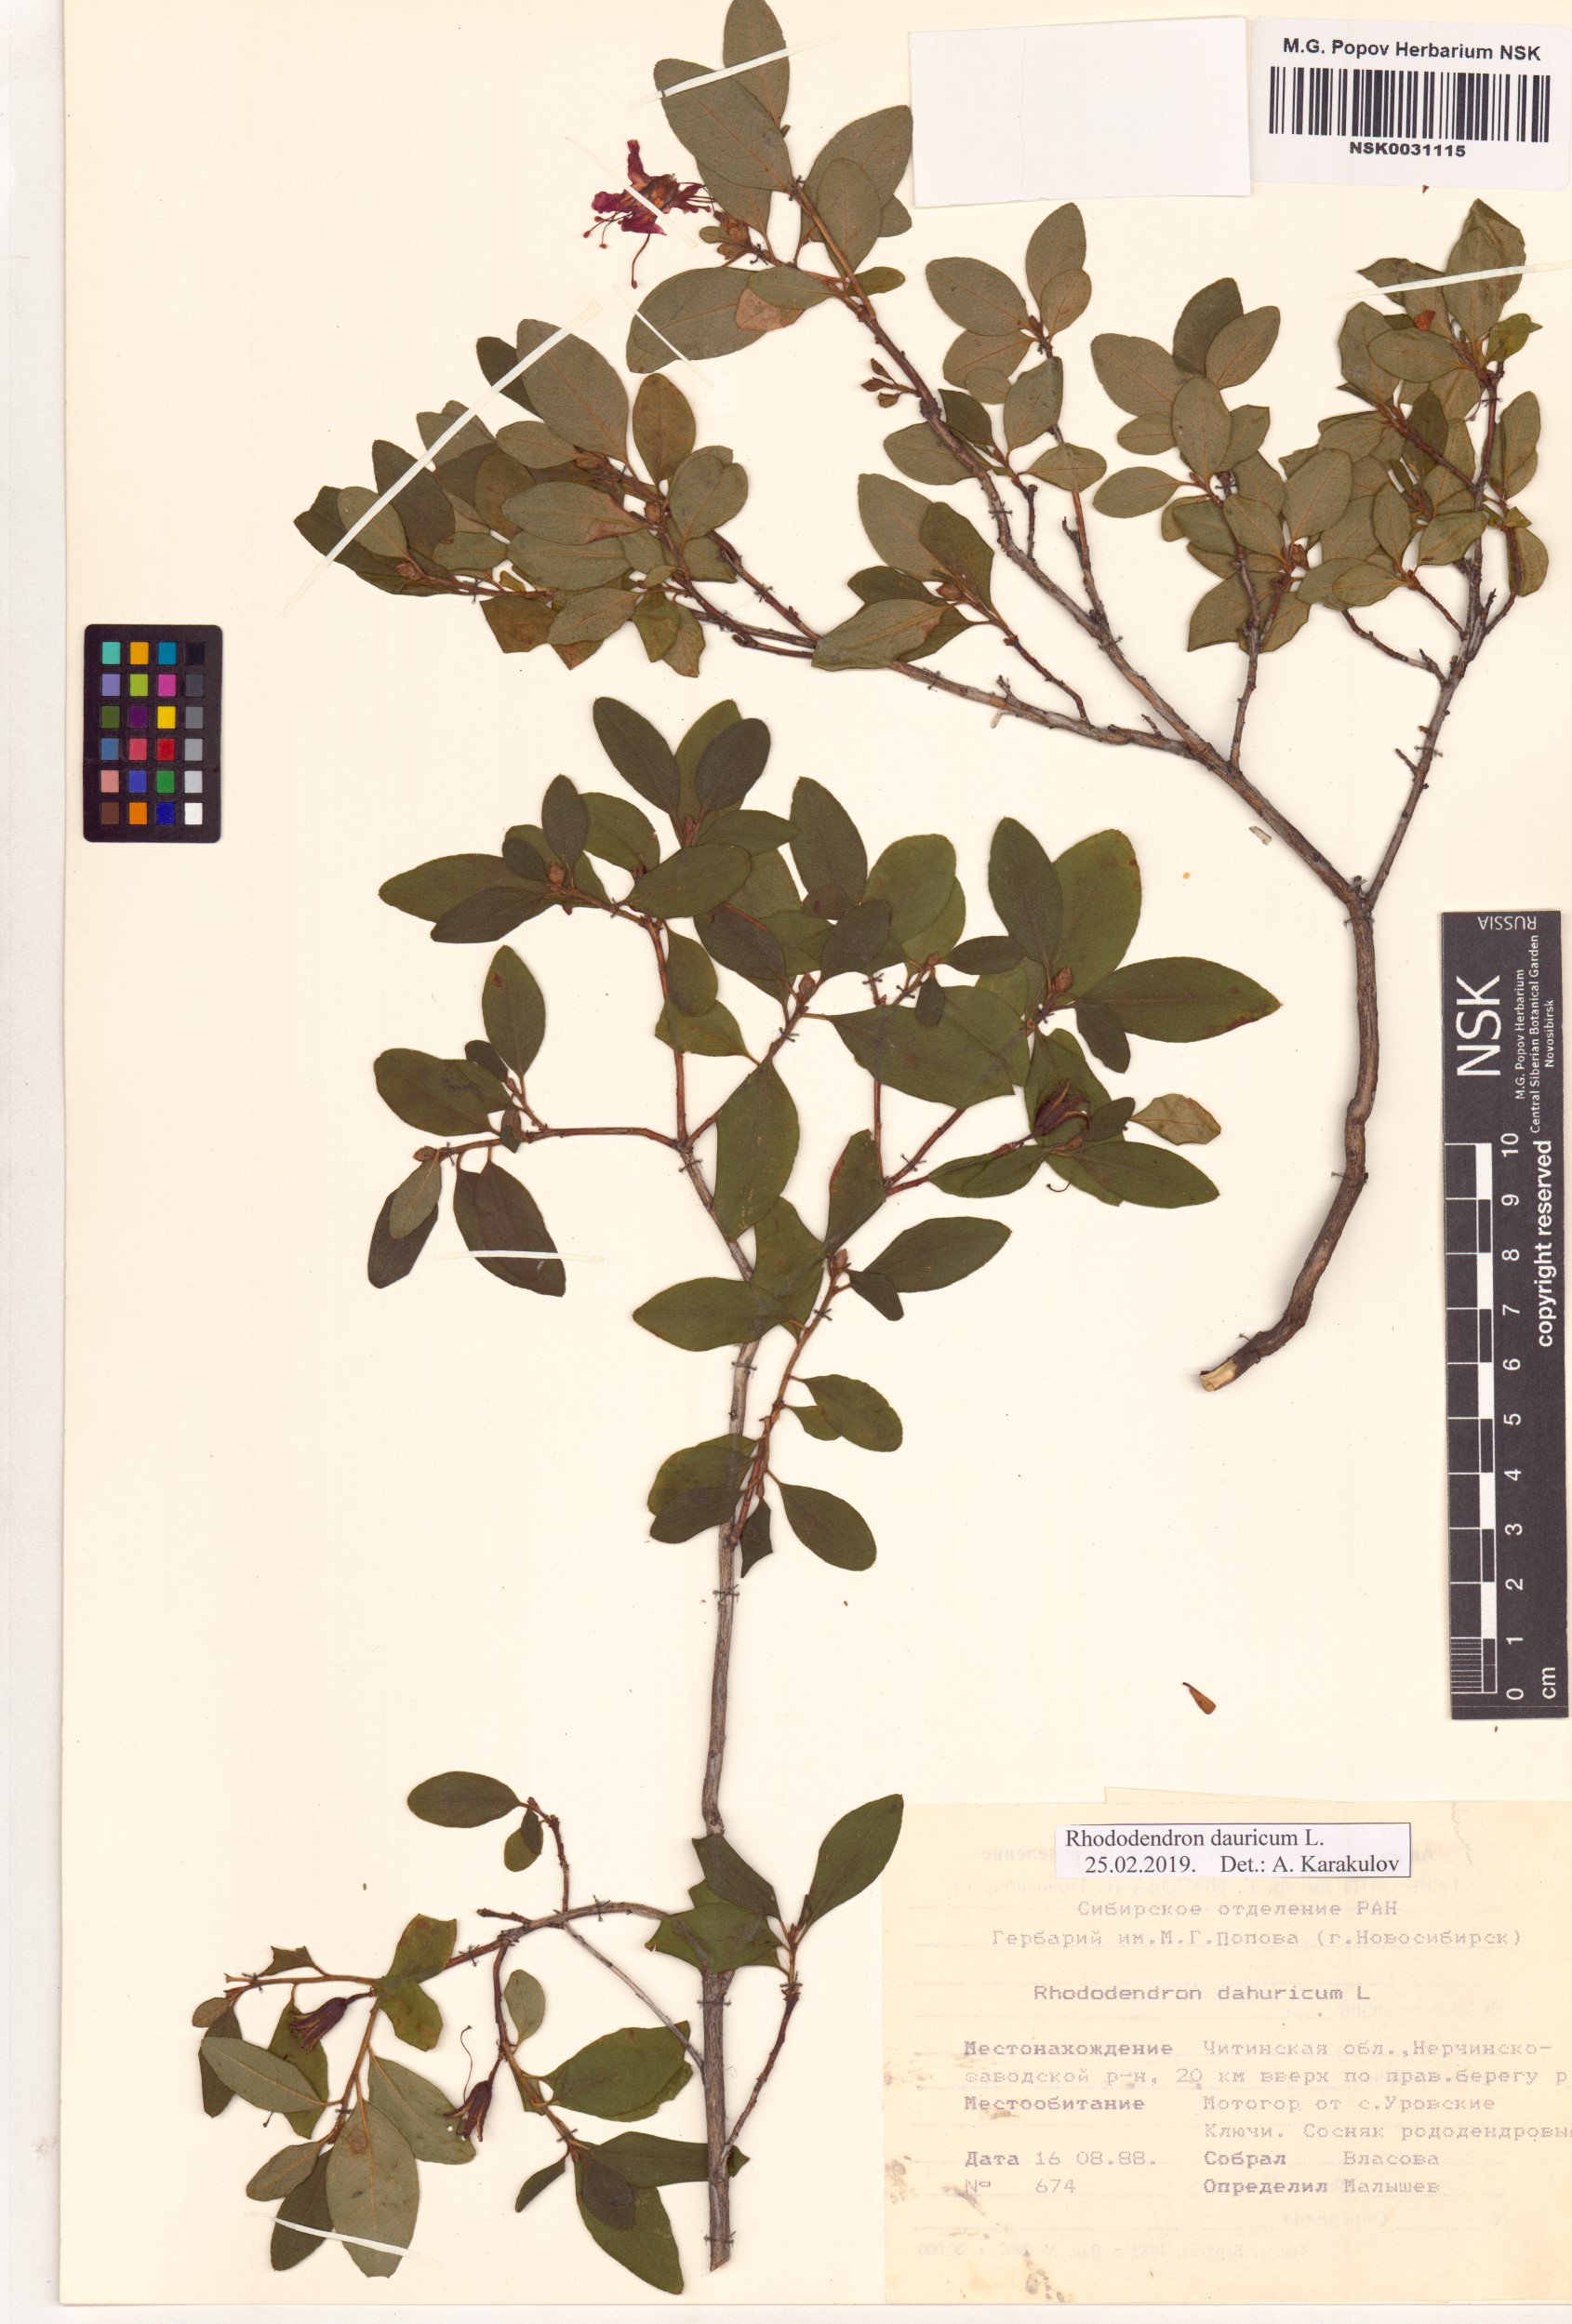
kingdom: Plantae
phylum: Tracheophyta
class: Magnoliopsida
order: Ericales
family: Ericaceae
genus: Rhododendron
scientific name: Rhododendron dauricum
